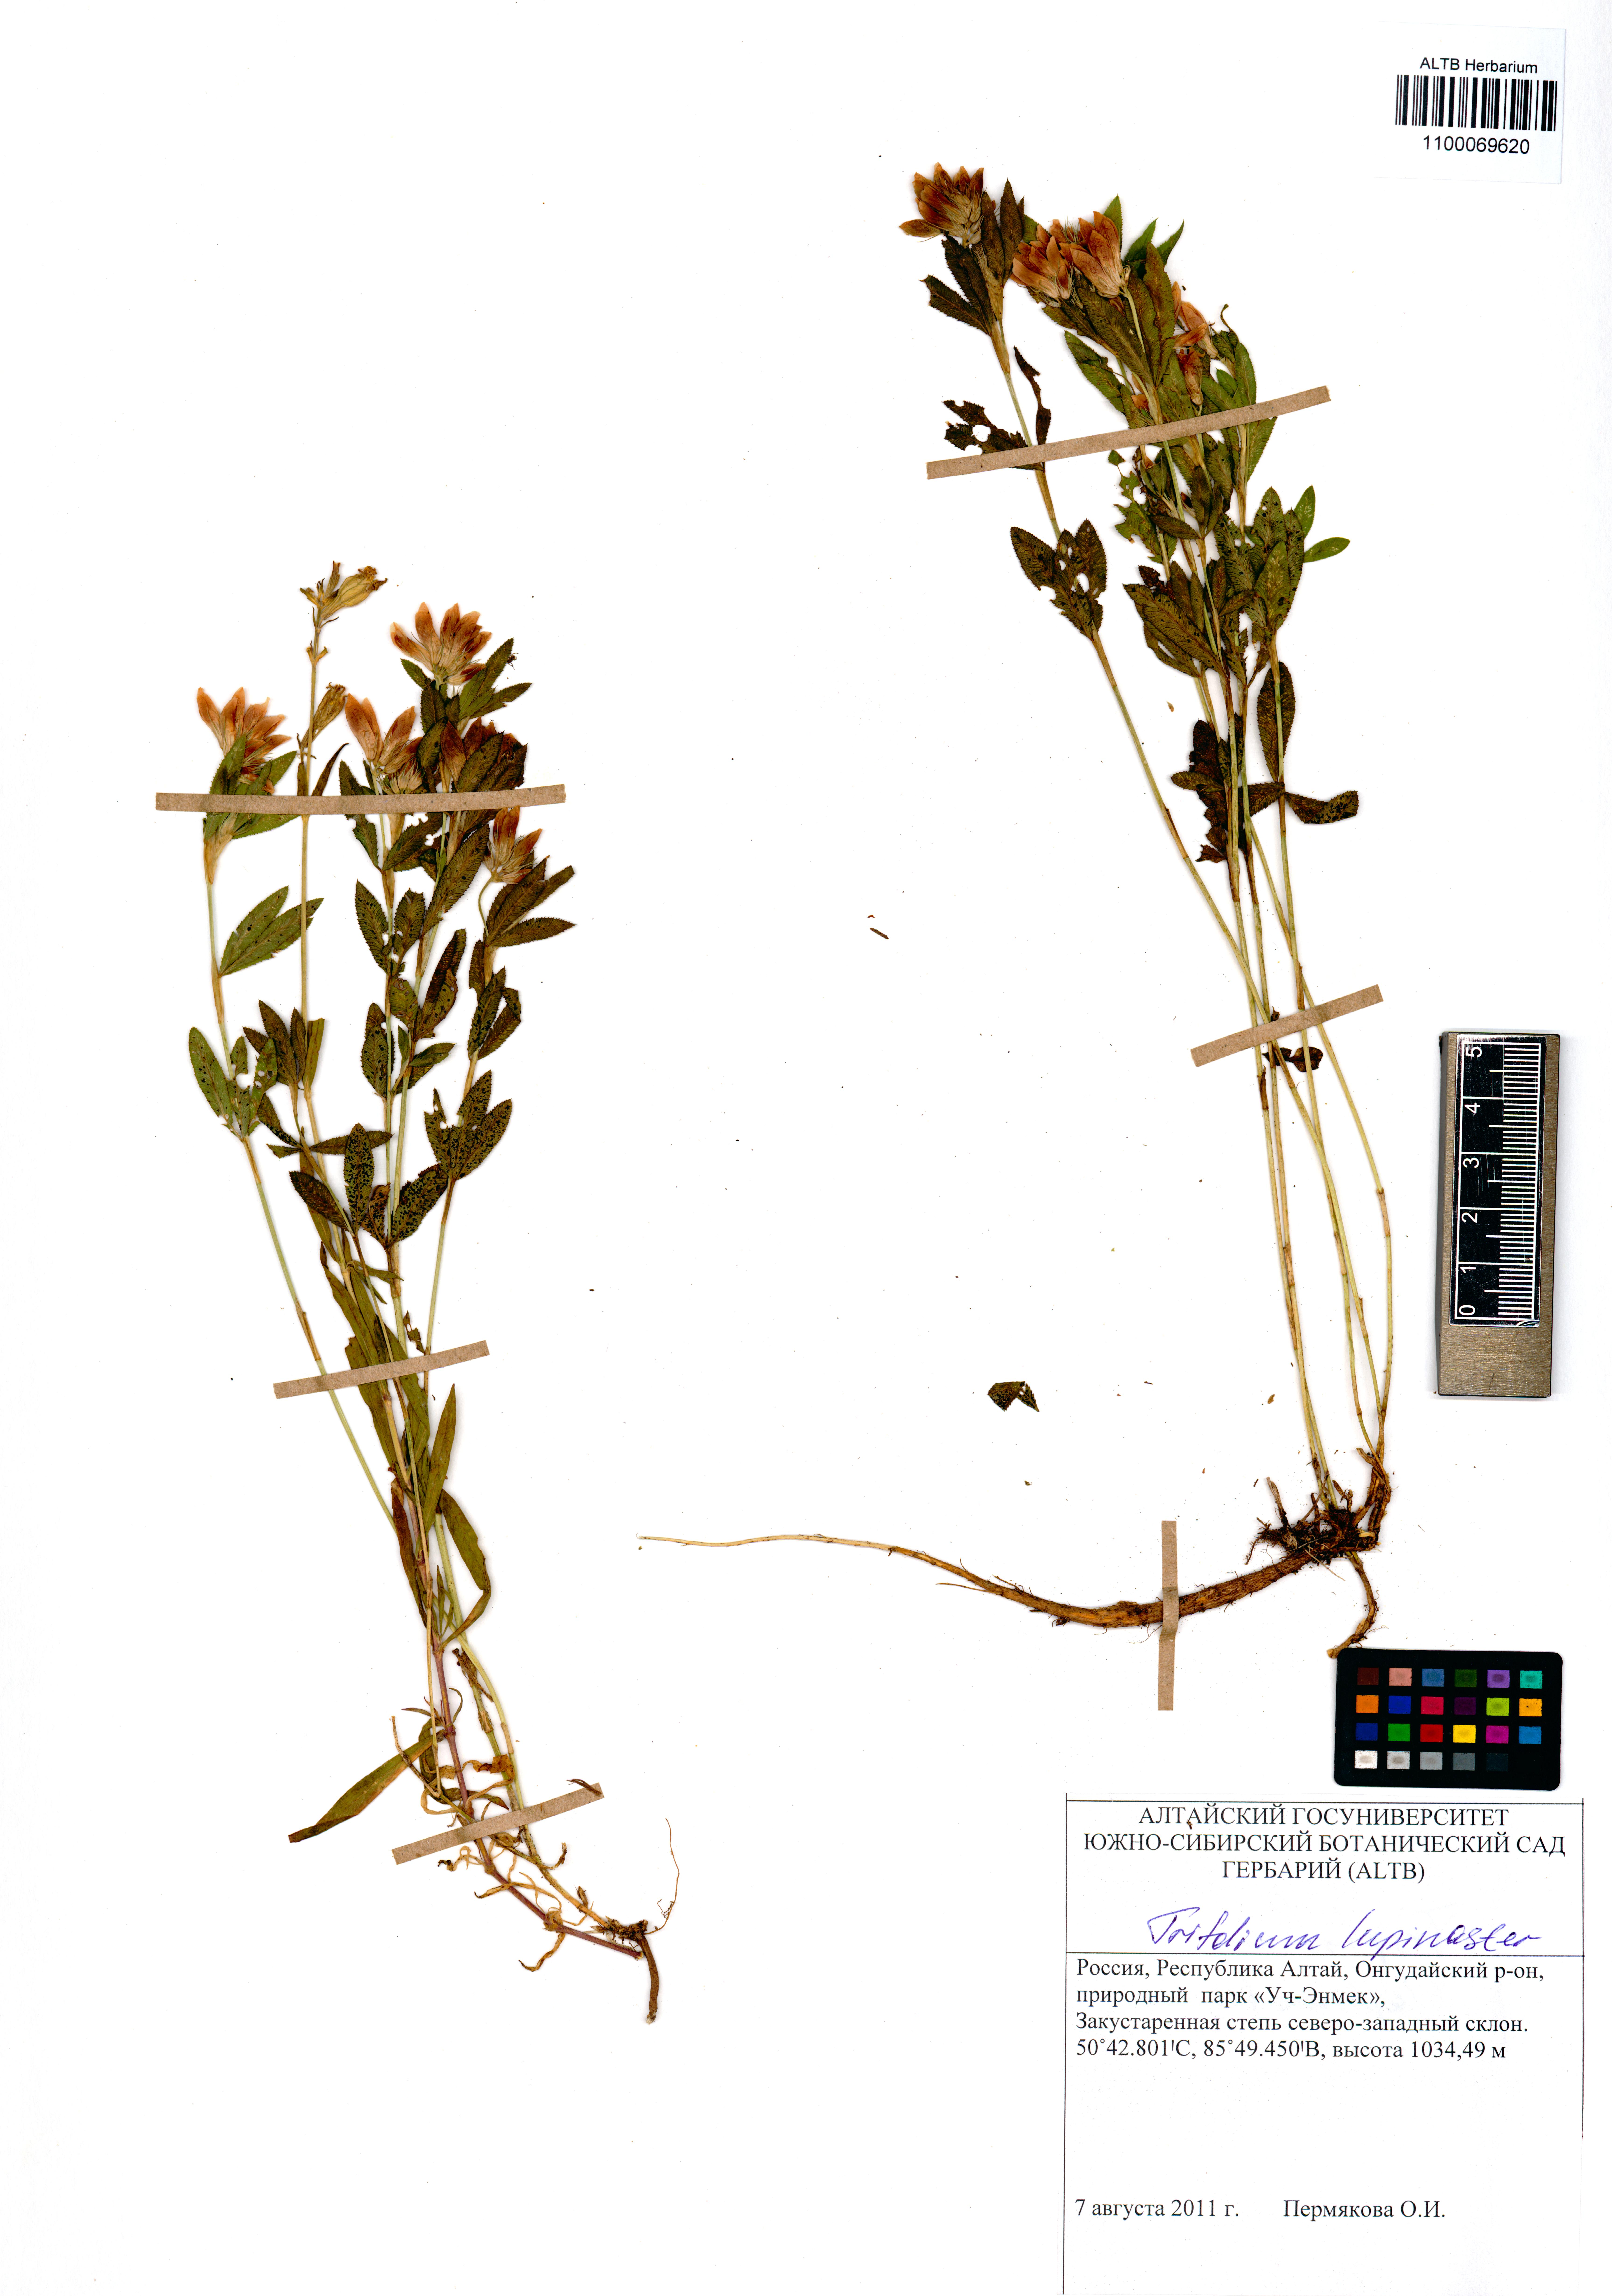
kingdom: Plantae
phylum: Tracheophyta
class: Magnoliopsida
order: Fabales
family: Fabaceae
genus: Trifolium
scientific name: Trifolium lupinaster
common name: Lupine clover
